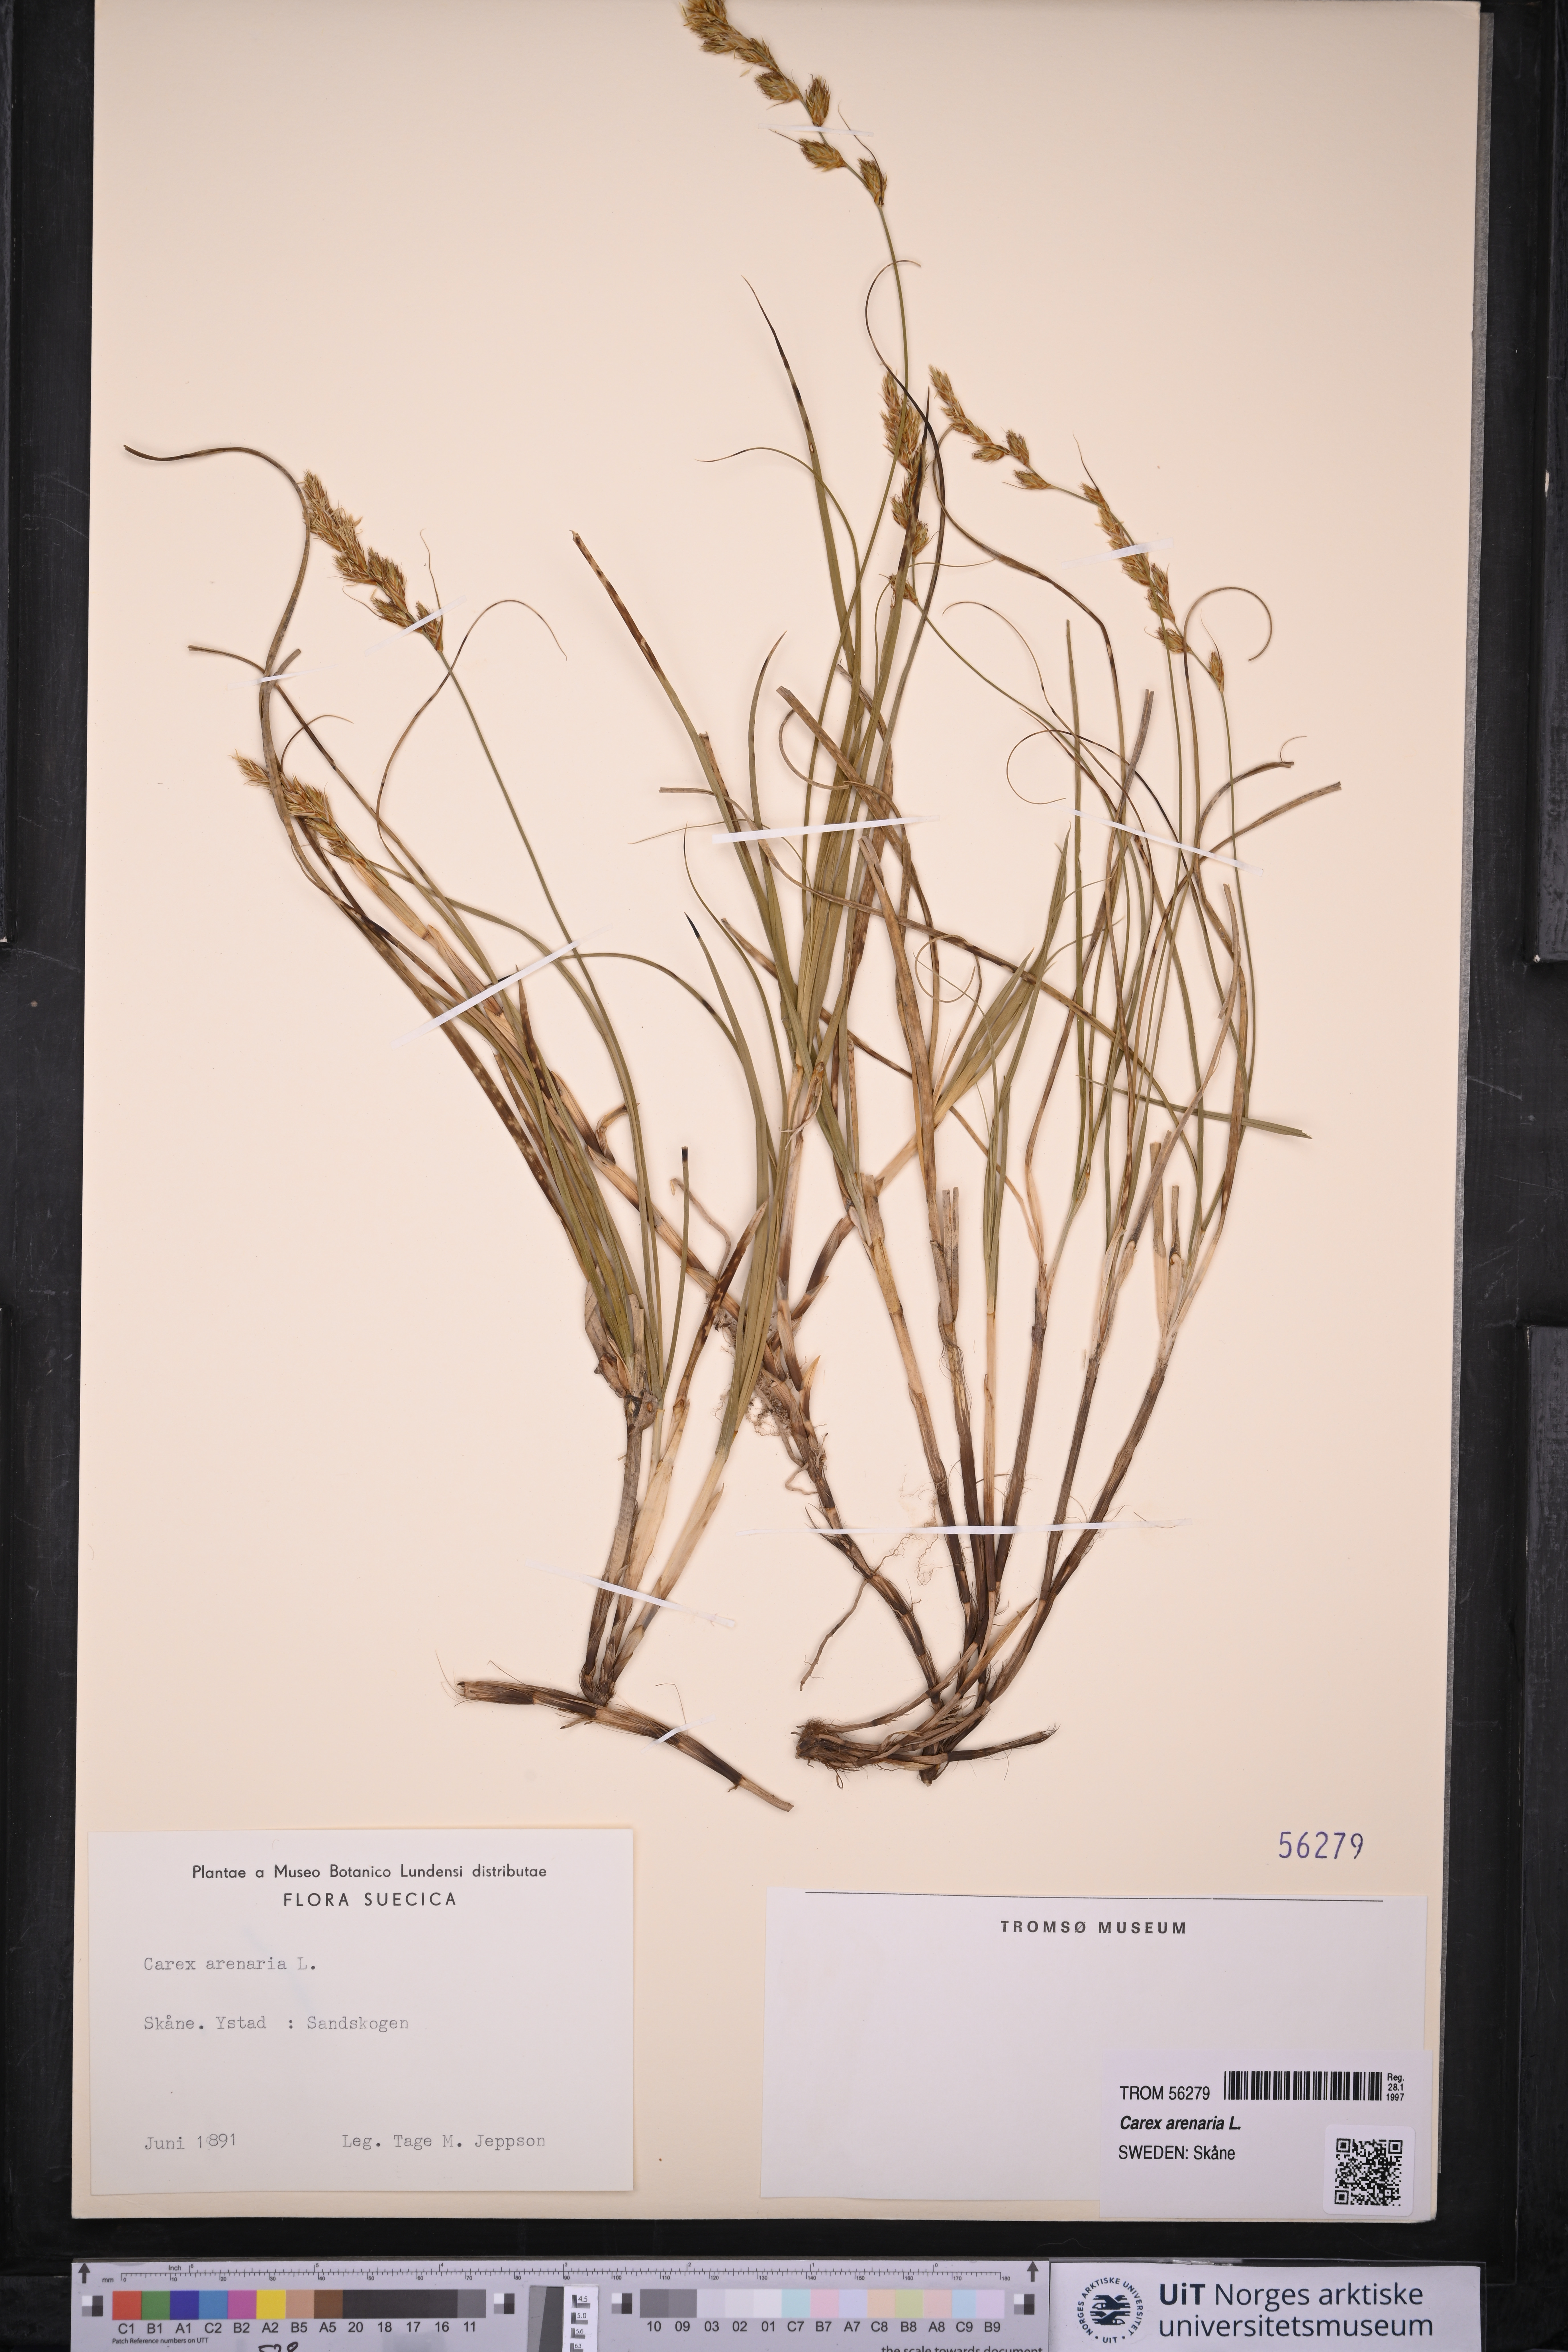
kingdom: Plantae
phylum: Tracheophyta
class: Liliopsida
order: Poales
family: Cyperaceae
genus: Carex
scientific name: Carex arenaria
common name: Sand sedge
